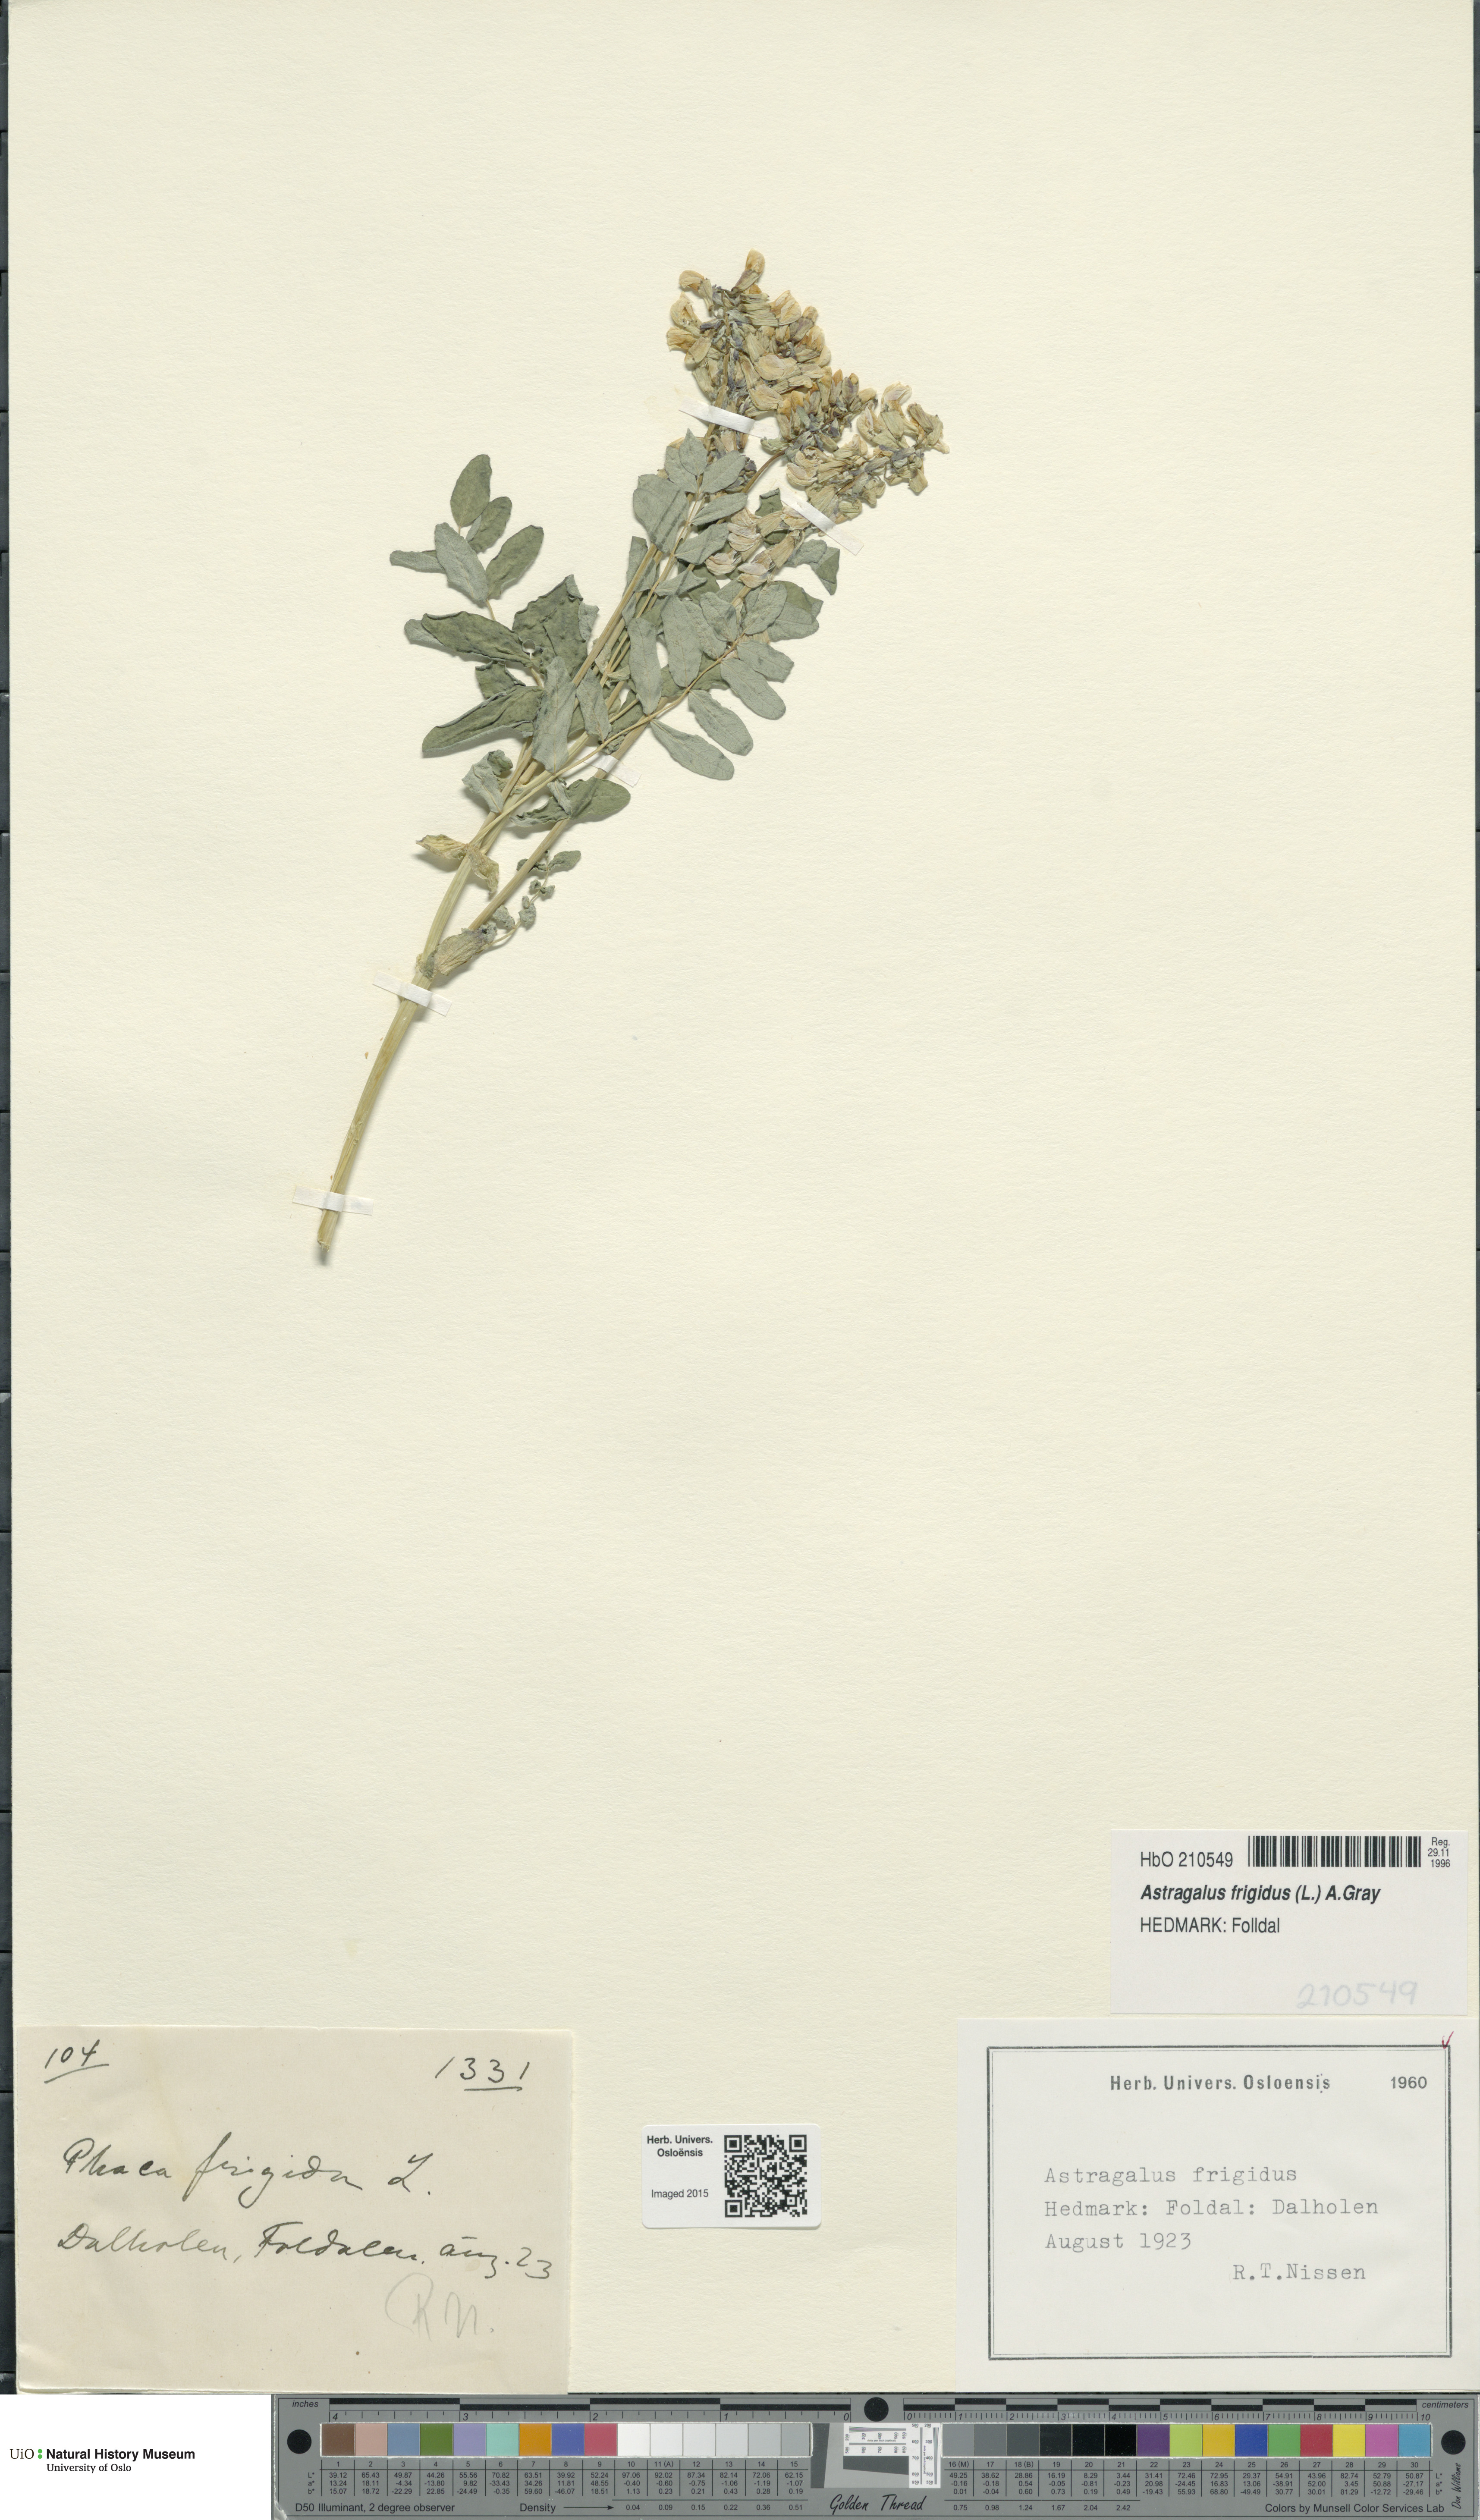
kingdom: Plantae
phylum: Tracheophyta
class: Magnoliopsida
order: Fabales
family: Fabaceae
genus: Astragalus
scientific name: Astragalus frigidus
